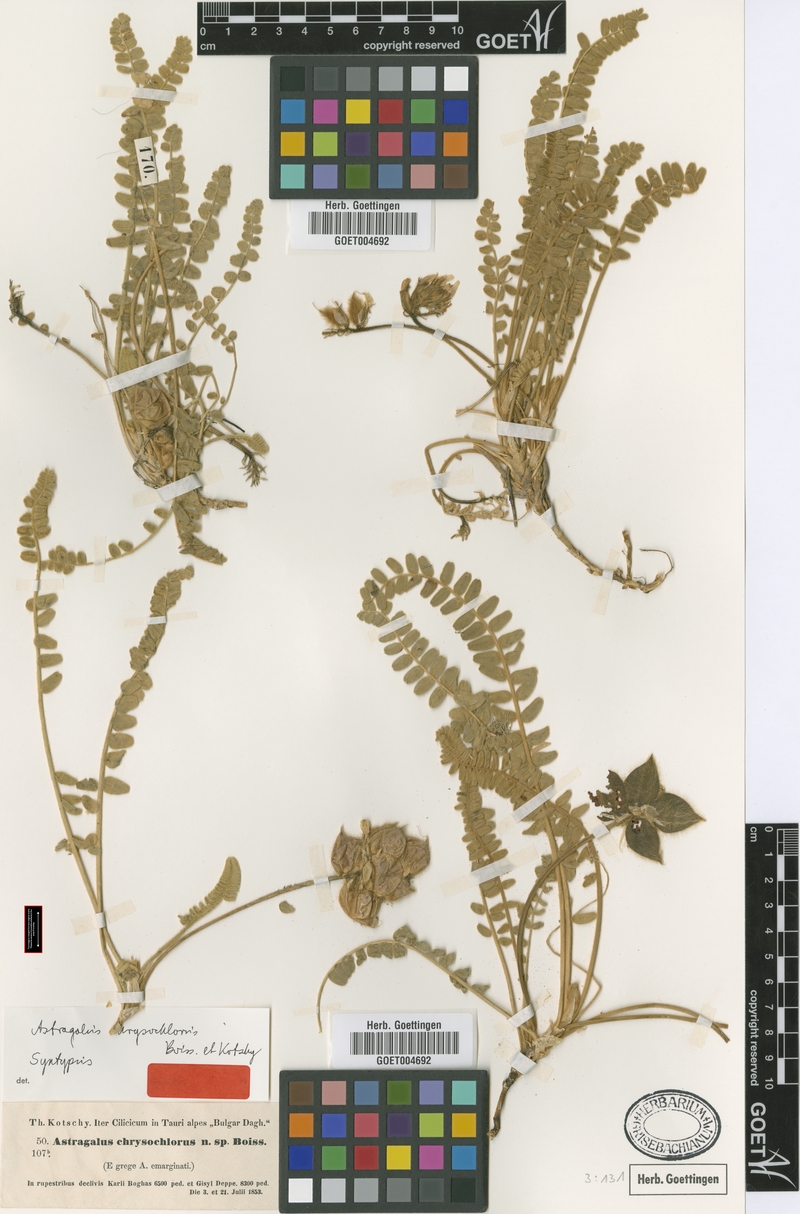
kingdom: Plantae
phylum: Tracheophyta
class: Magnoliopsida
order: Fabales
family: Fabaceae
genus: Astragalus
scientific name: Astragalus chrysochlorus
